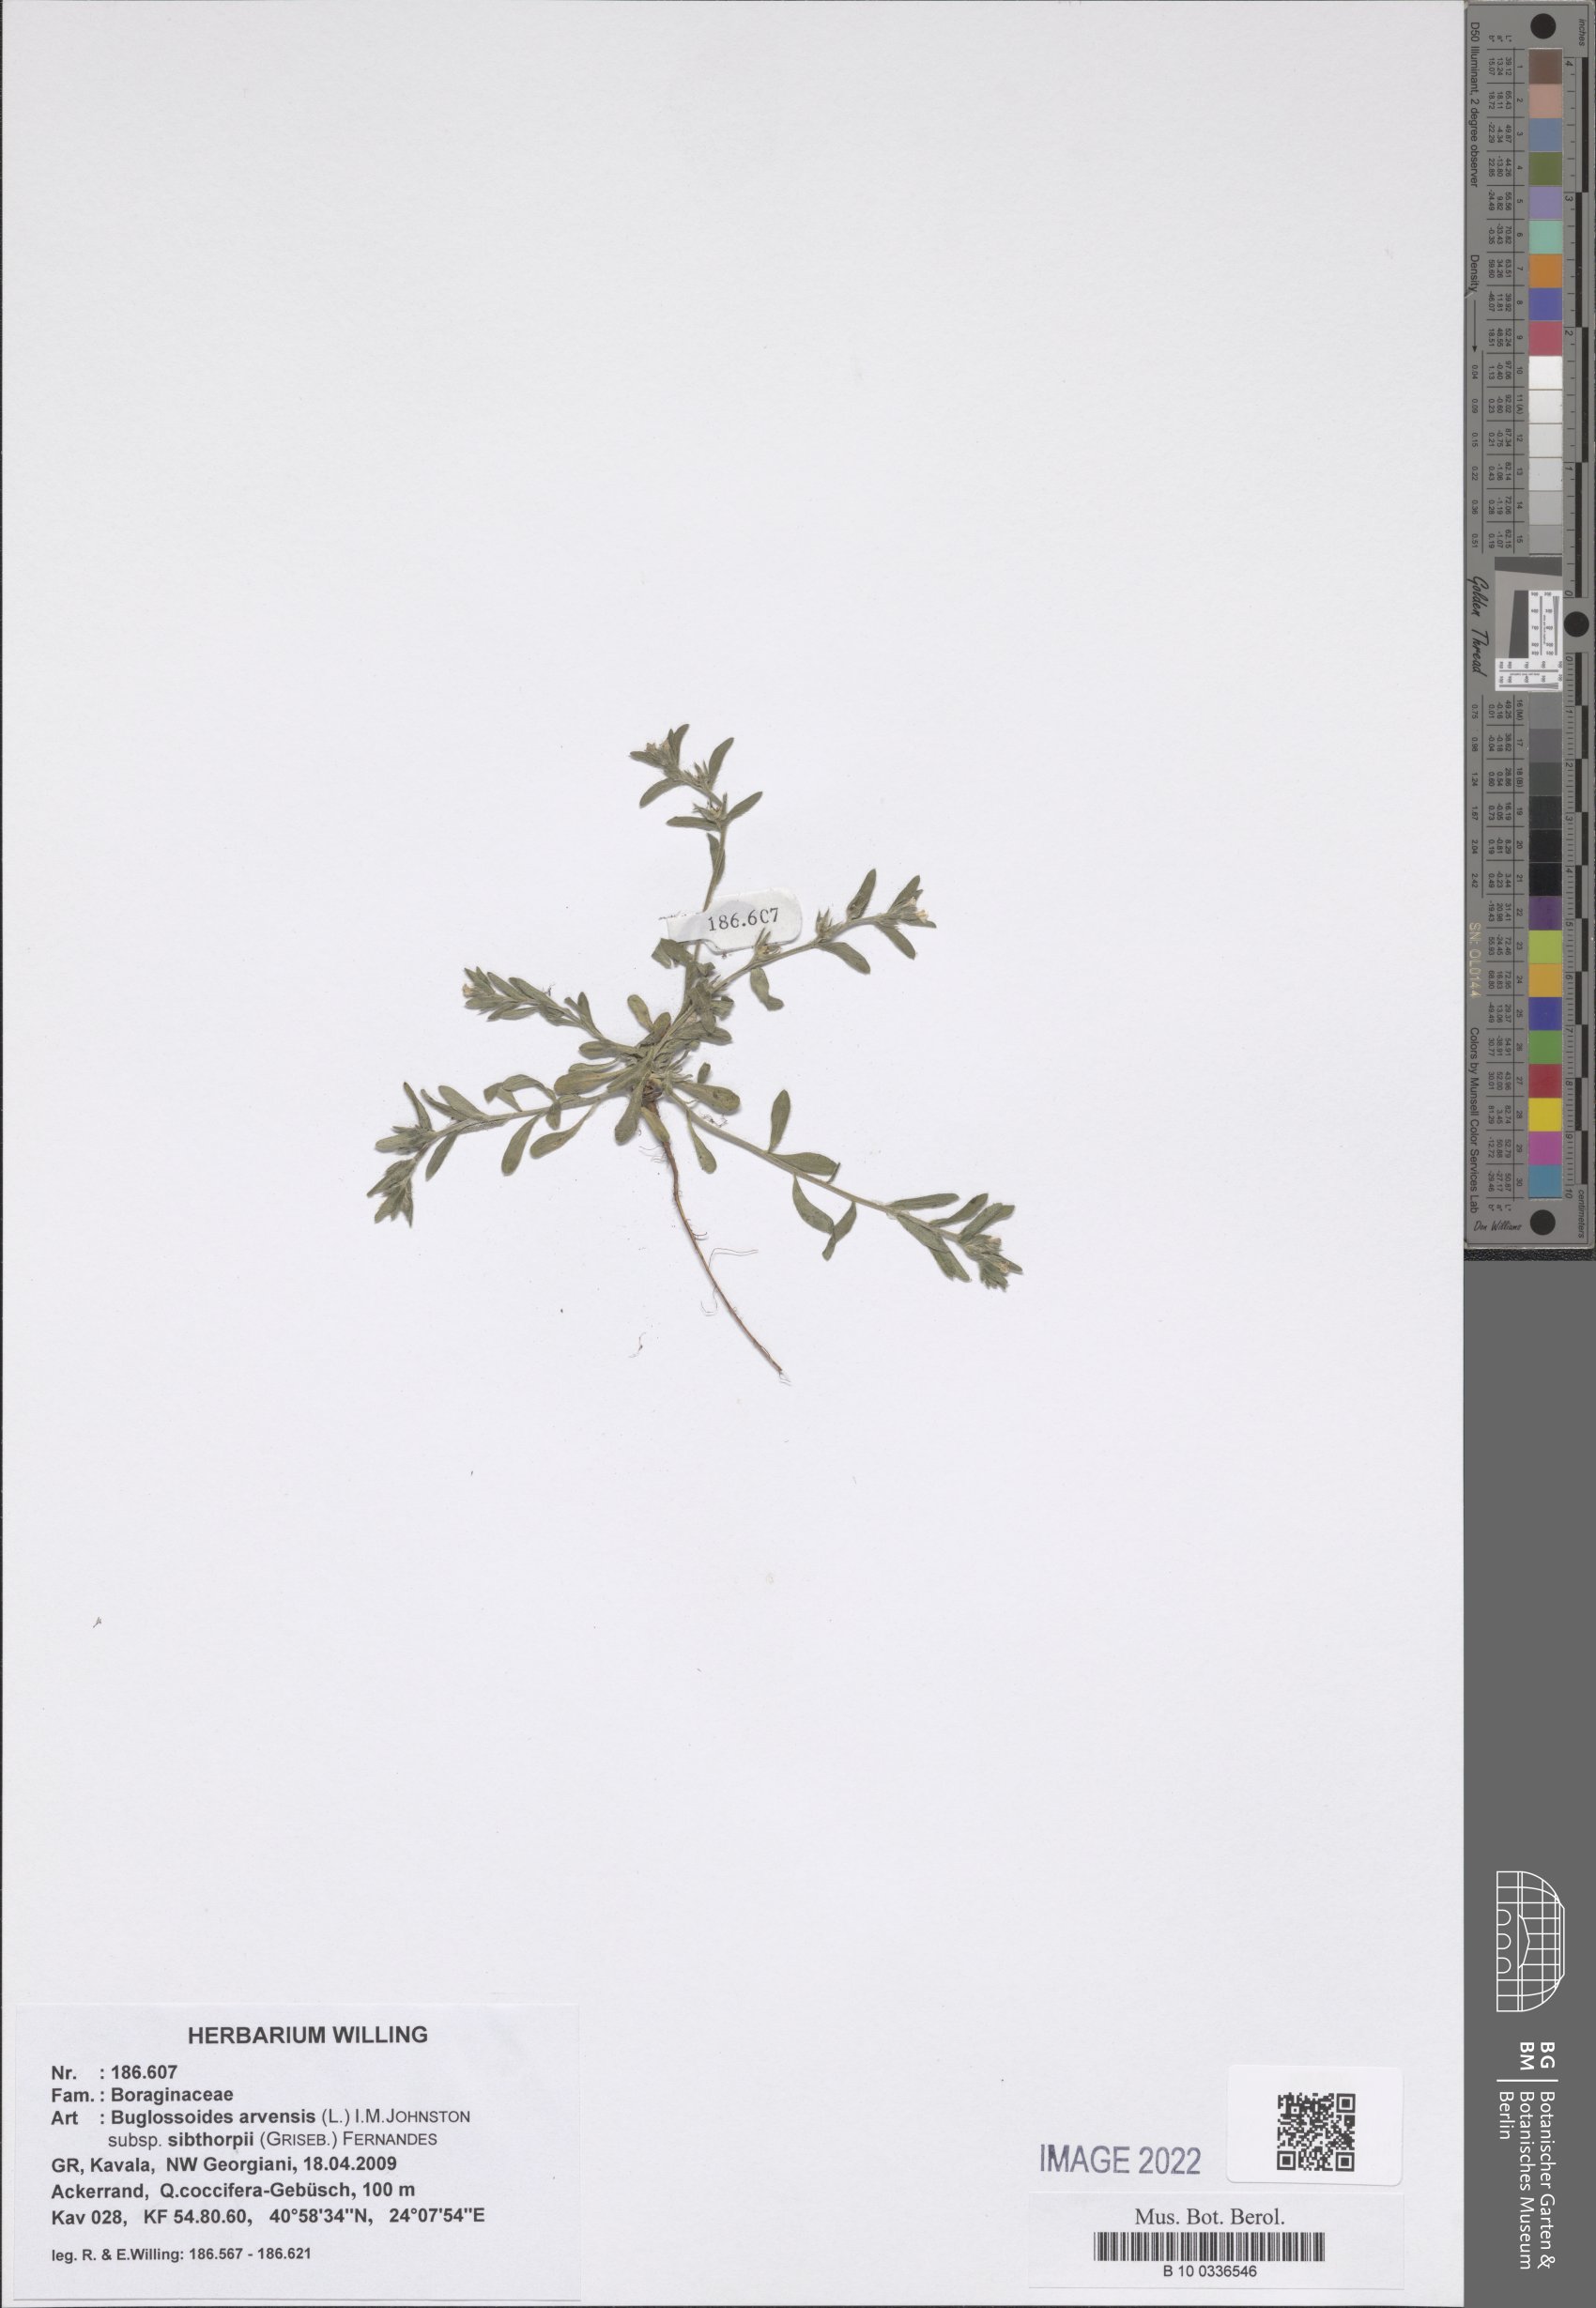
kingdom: Plantae
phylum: Tracheophyta
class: Magnoliopsida
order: Boraginales
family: Boraginaceae
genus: Buglossoides
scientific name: Buglossoides arvensis
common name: Corn gromwell
